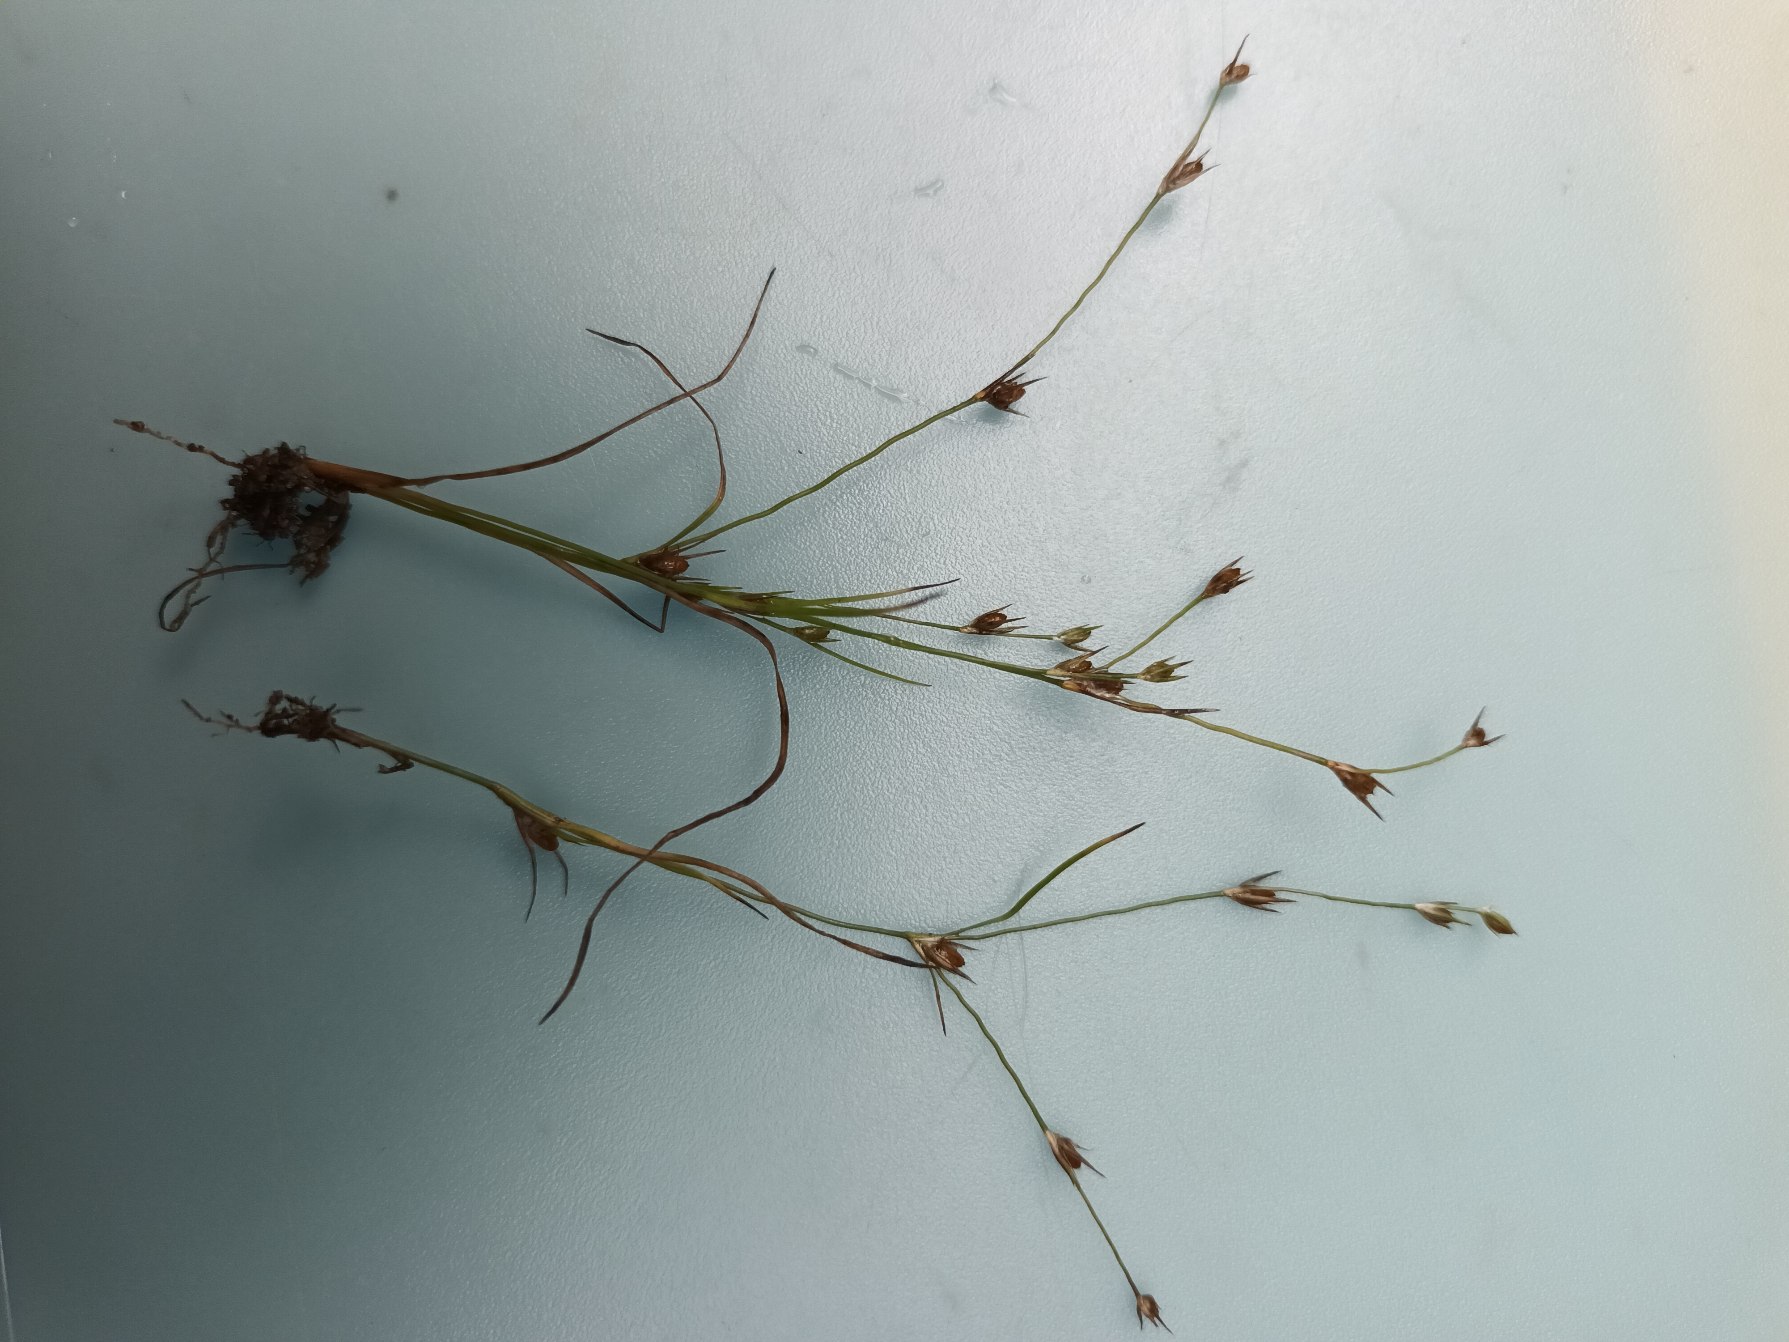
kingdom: Plantae
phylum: Tracheophyta
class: Liliopsida
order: Poales
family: Juncaceae
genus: Juncus
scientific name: Juncus minutulus
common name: Småblomstret siv
